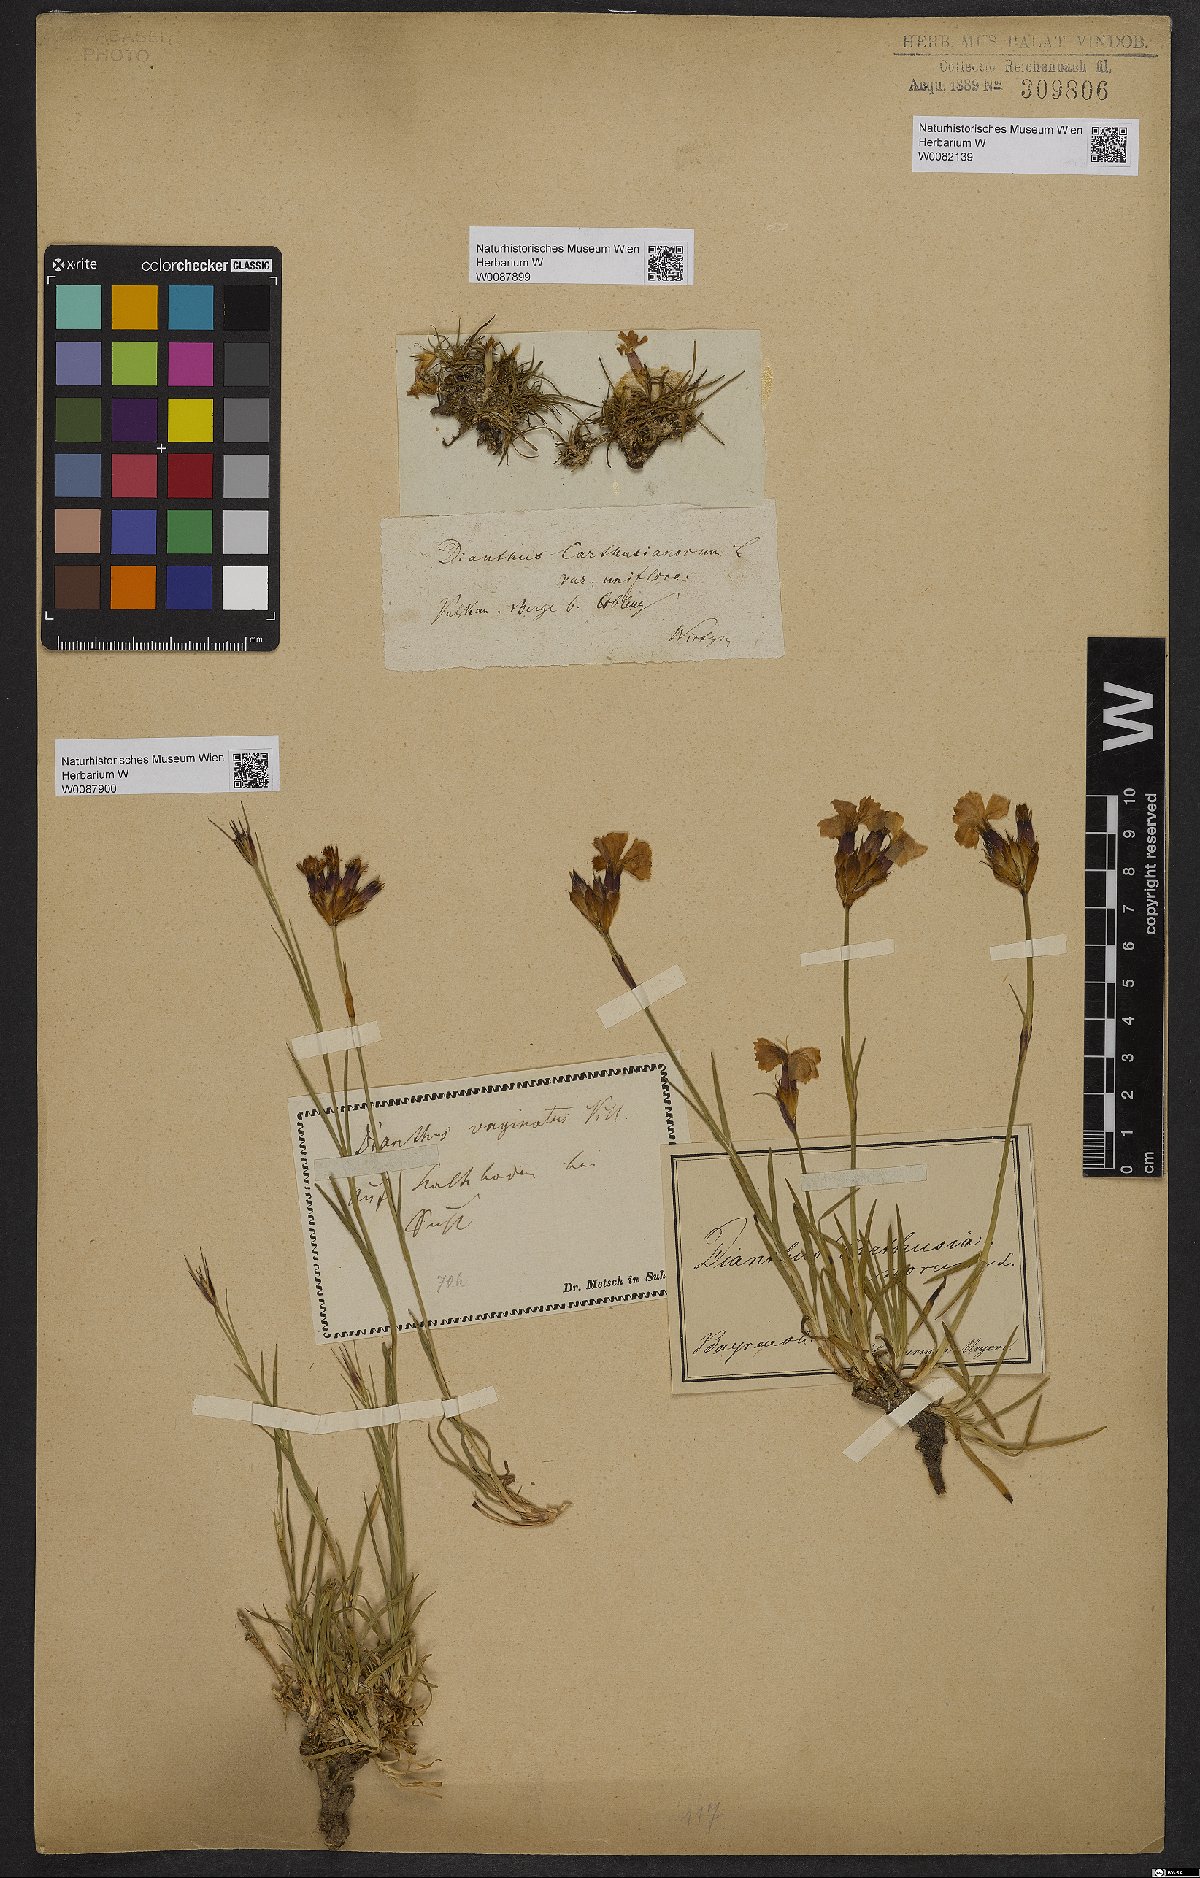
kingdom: Plantae
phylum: Tracheophyta
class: Magnoliopsida
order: Caryophyllales
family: Caryophyllaceae
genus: Dianthus
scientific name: Dianthus carthusianorum
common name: Carthusian pink
